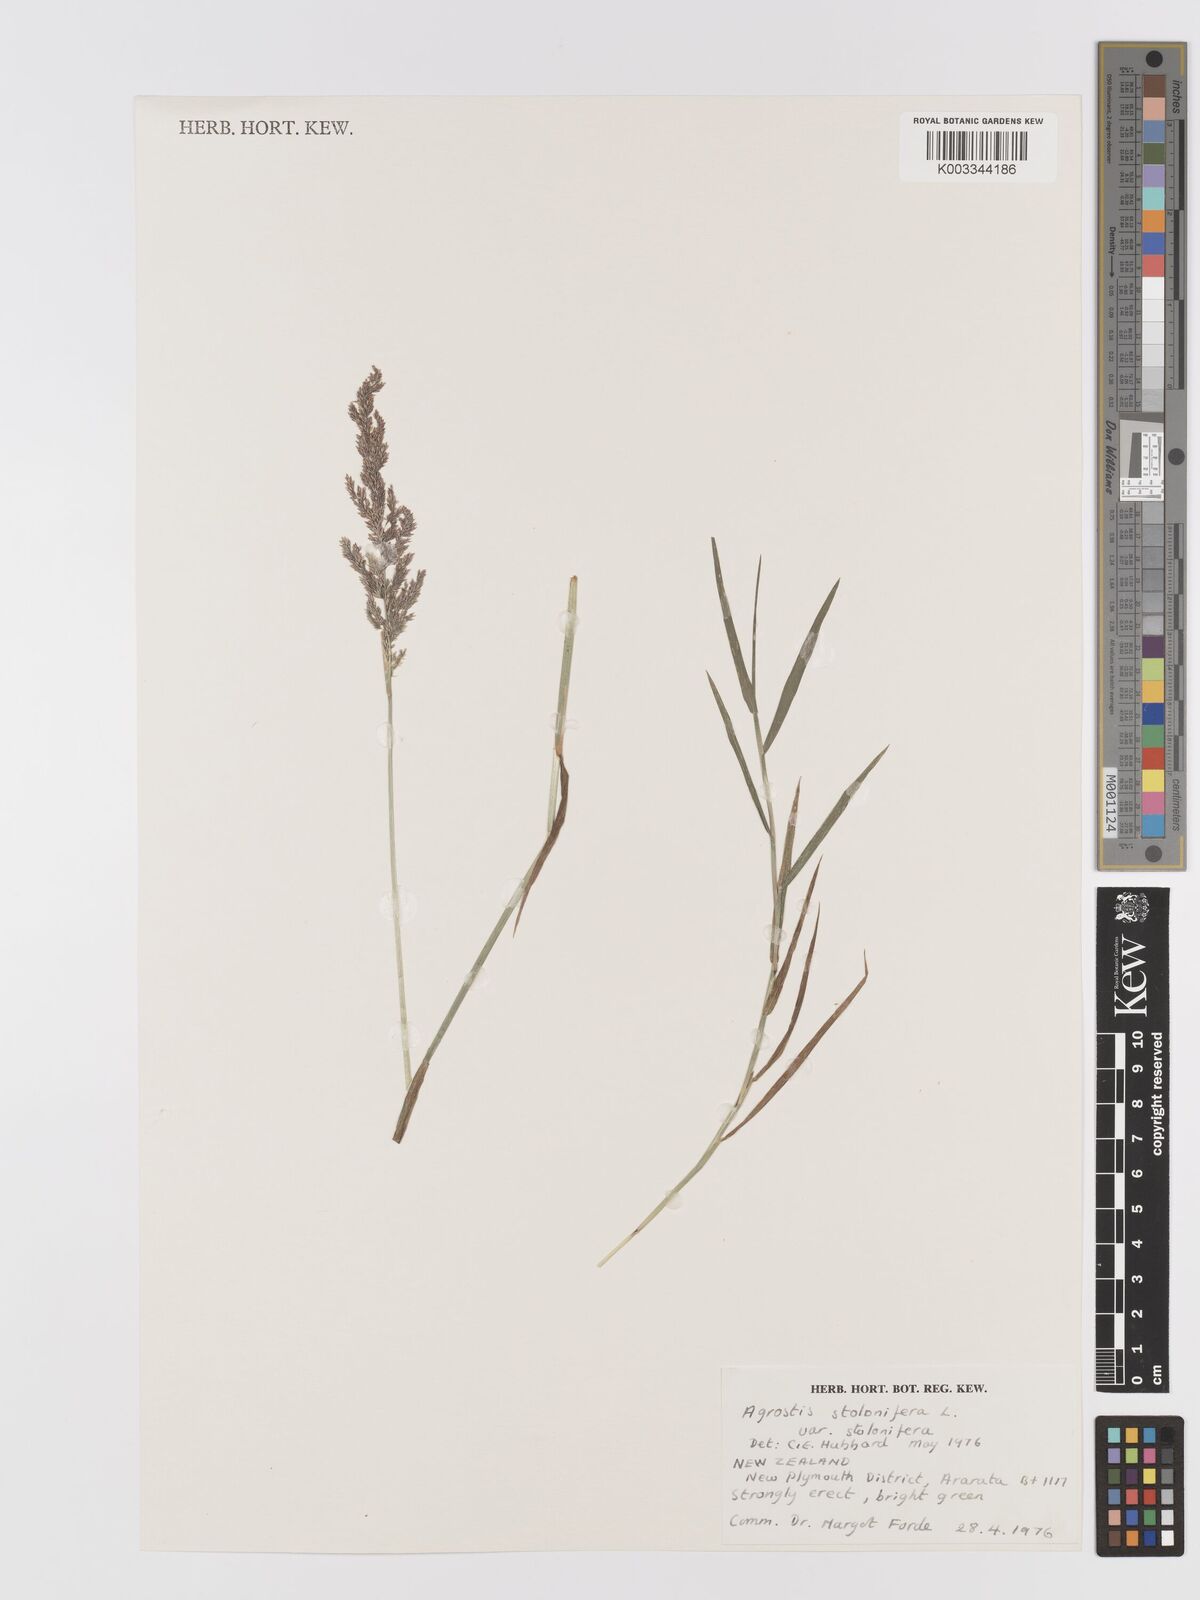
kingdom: Plantae
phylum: Tracheophyta
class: Liliopsida
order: Poales
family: Poaceae
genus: Agrostis
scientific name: Agrostis stolonifera
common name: Creeping bentgrass
